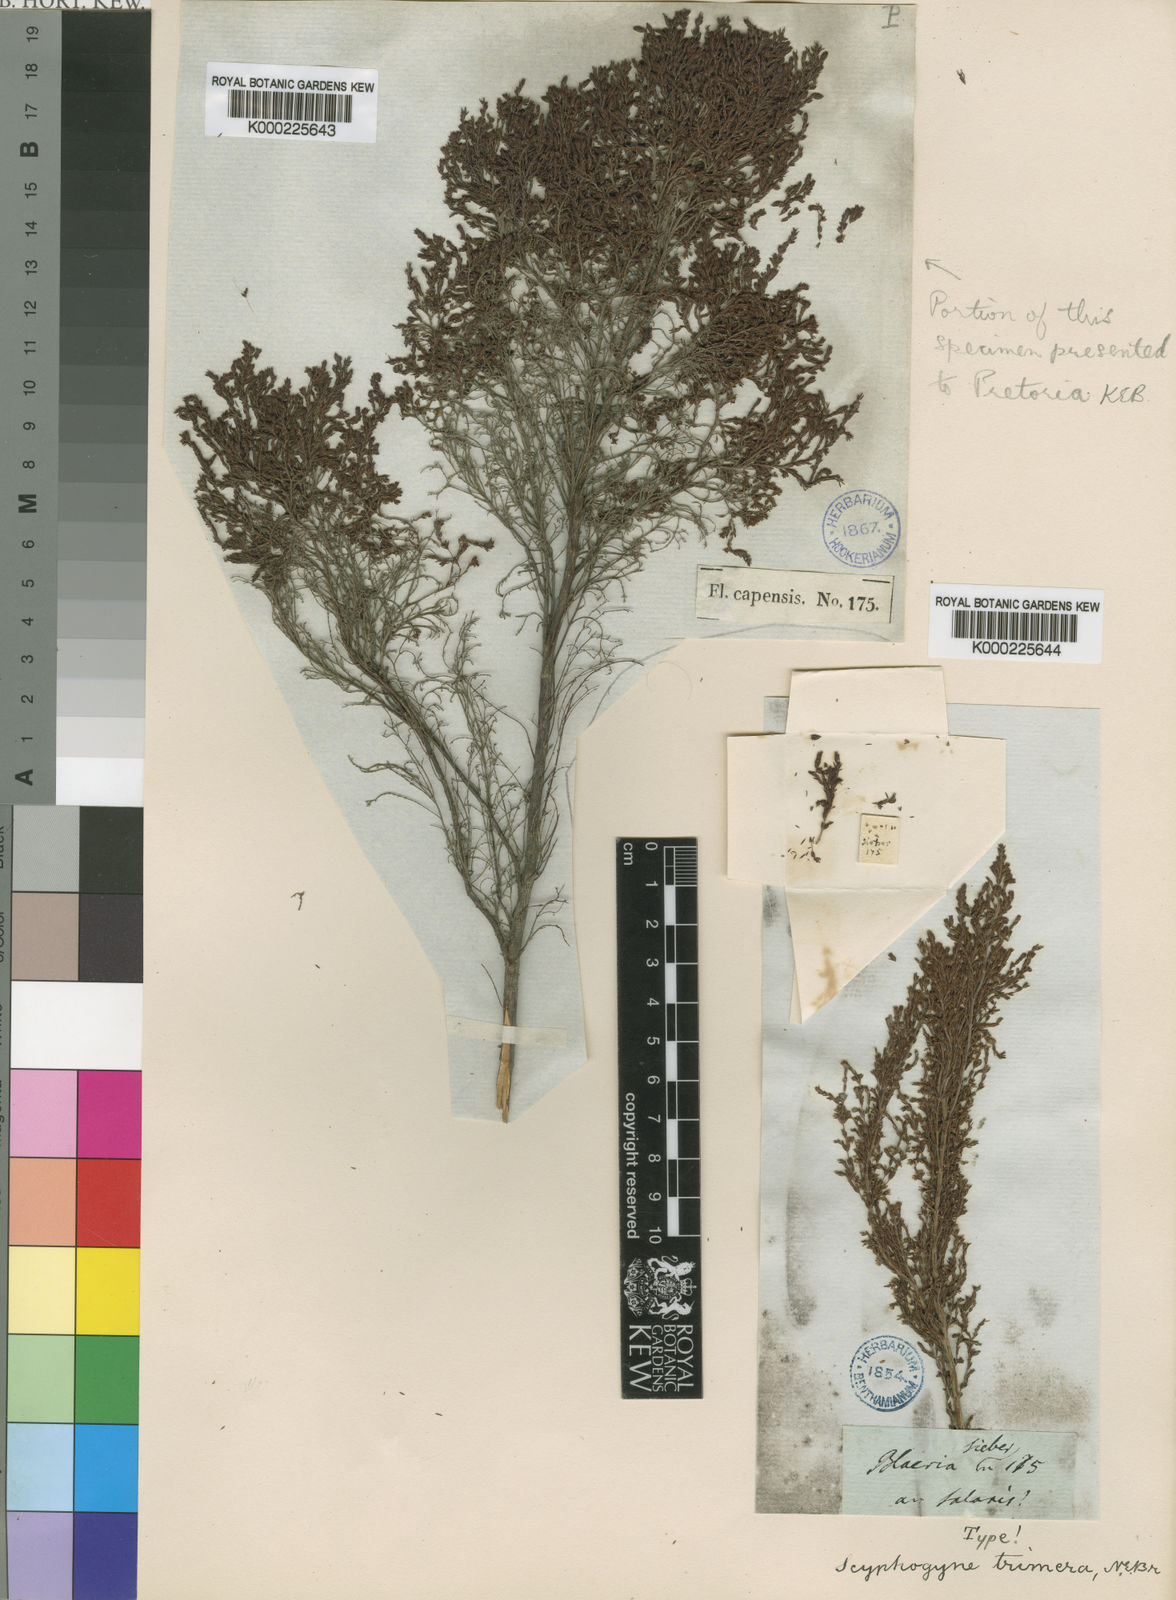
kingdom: Plantae
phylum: Tracheophyta
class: Magnoliopsida
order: Ericales
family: Ericaceae
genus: Erica
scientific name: Erica urceolata
